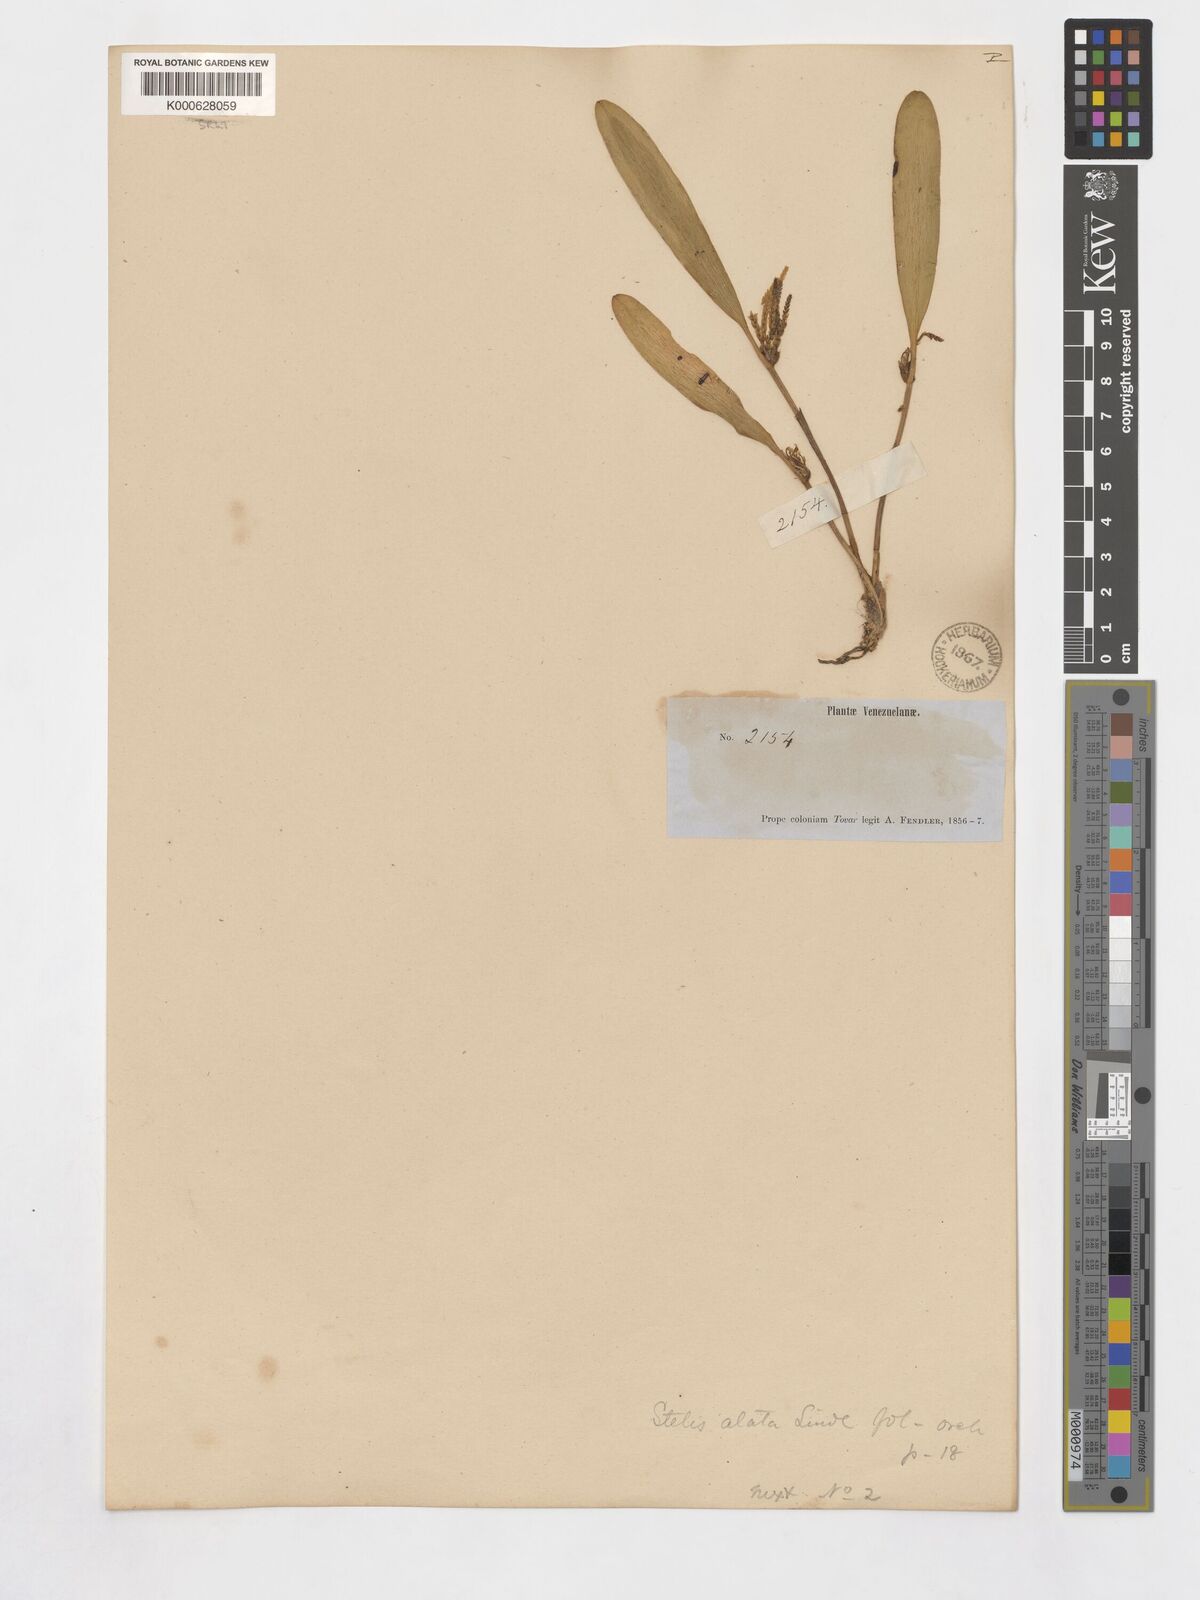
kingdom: Plantae
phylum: Tracheophyta
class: Liliopsida
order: Asparagales
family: Orchidaceae
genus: Stelis
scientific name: Stelis tenuilabris
